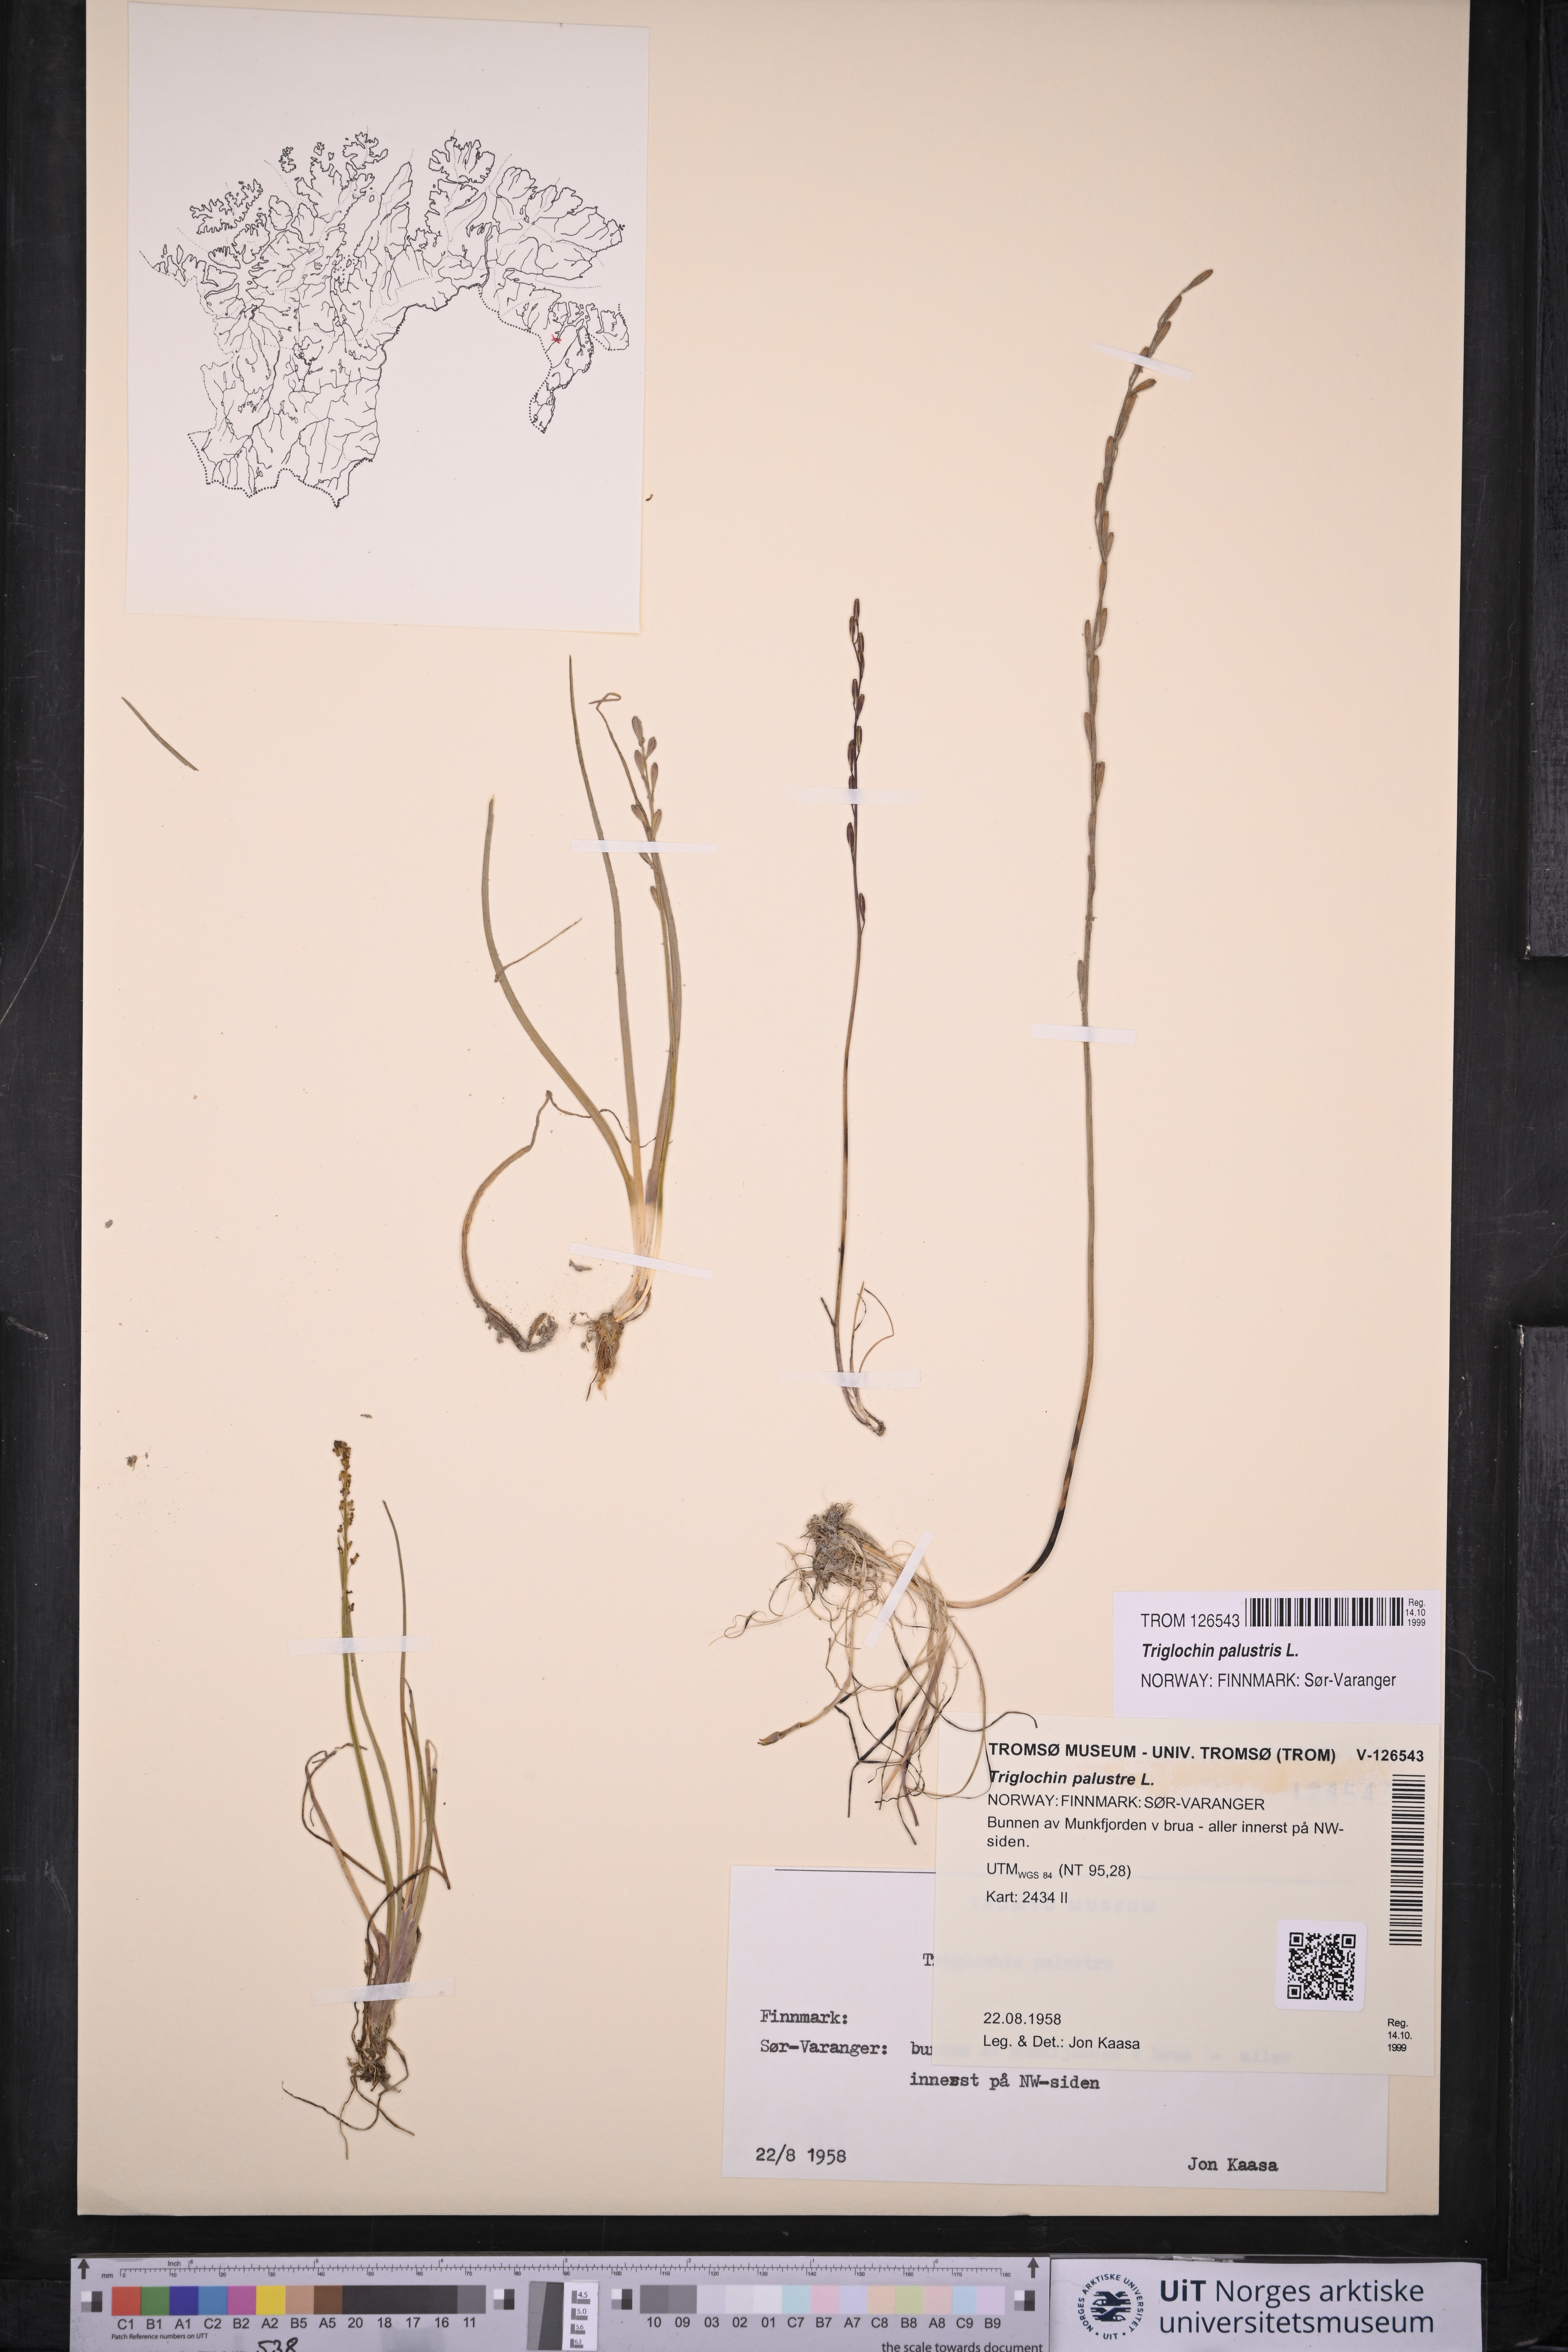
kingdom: Plantae
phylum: Tracheophyta
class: Liliopsida
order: Alismatales
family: Juncaginaceae
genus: Triglochin
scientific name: Triglochin palustris
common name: Marsh arrowgrass
